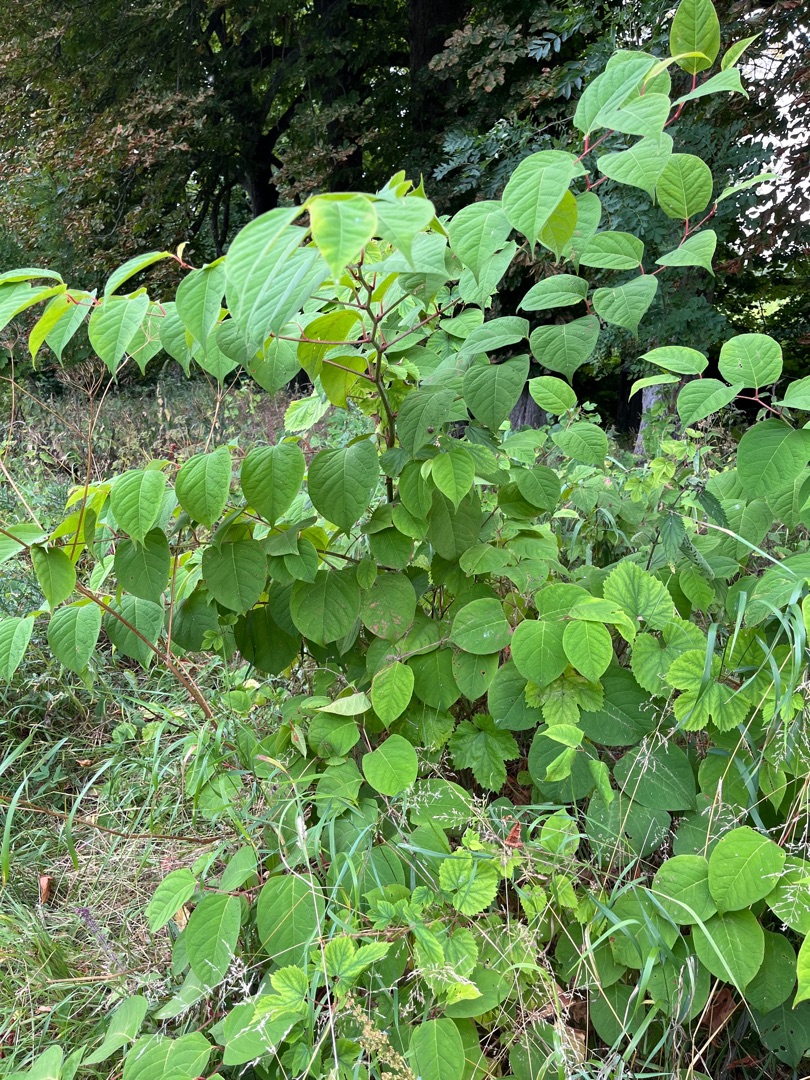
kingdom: Plantae
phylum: Tracheophyta
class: Magnoliopsida
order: Caryophyllales
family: Polygonaceae
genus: Reynoutria
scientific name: Reynoutria japonica
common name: Japan-pileurt
